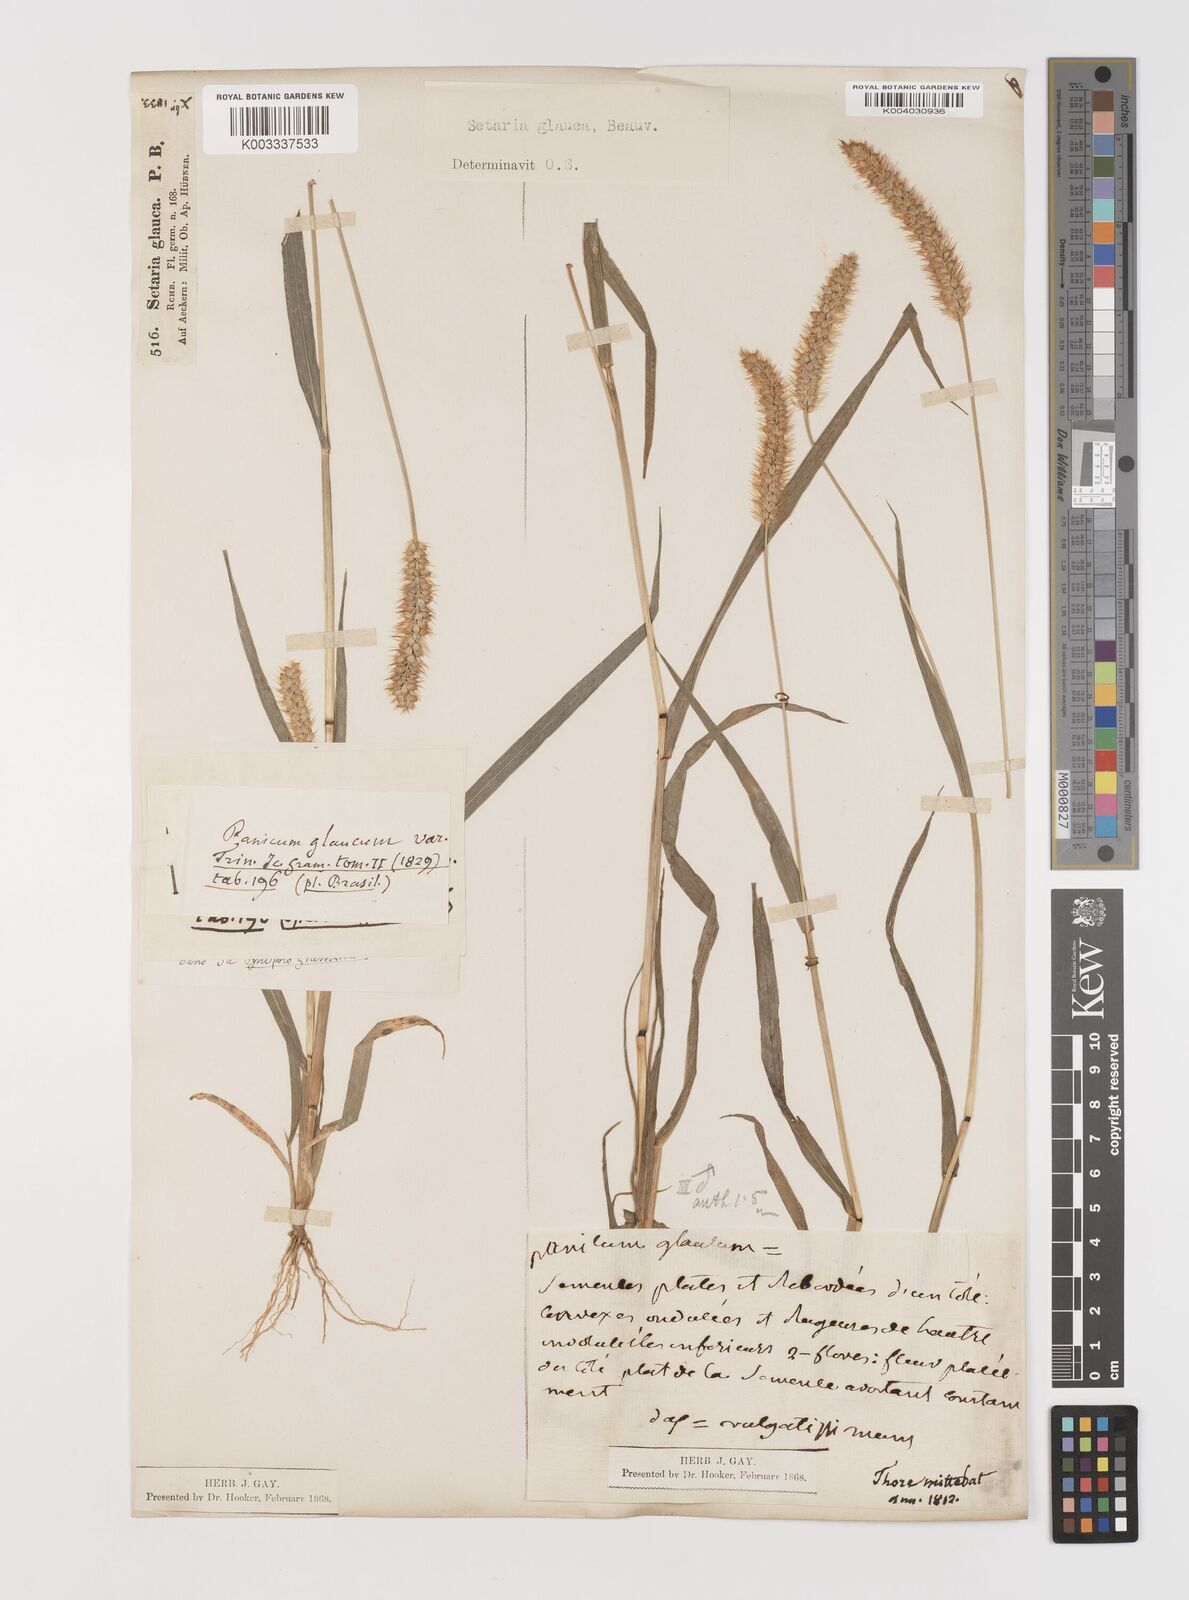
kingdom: Plantae
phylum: Tracheophyta
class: Liliopsida
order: Poales
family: Poaceae
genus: Setaria
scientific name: Setaria pumila
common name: Yellow bristle-grass
